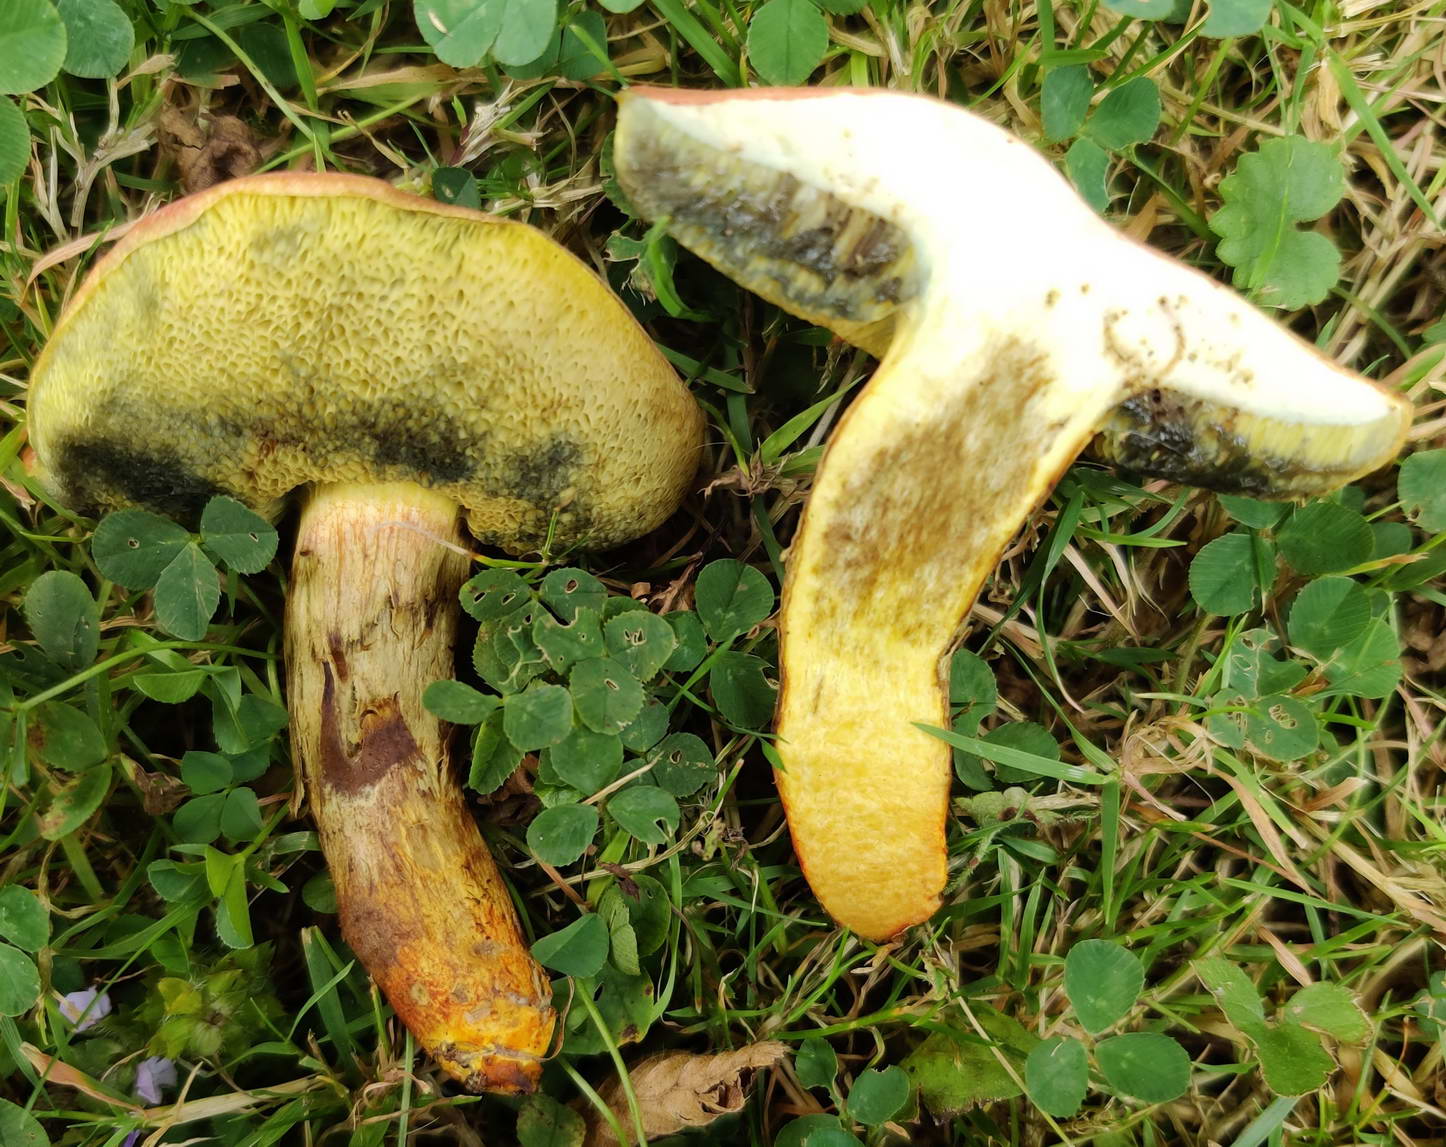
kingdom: Fungi
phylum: Basidiomycota
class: Agaricomycetes
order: Boletales
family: Boletaceae
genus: Hortiboletus
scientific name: Hortiboletus engelii
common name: fersken-rørhat
